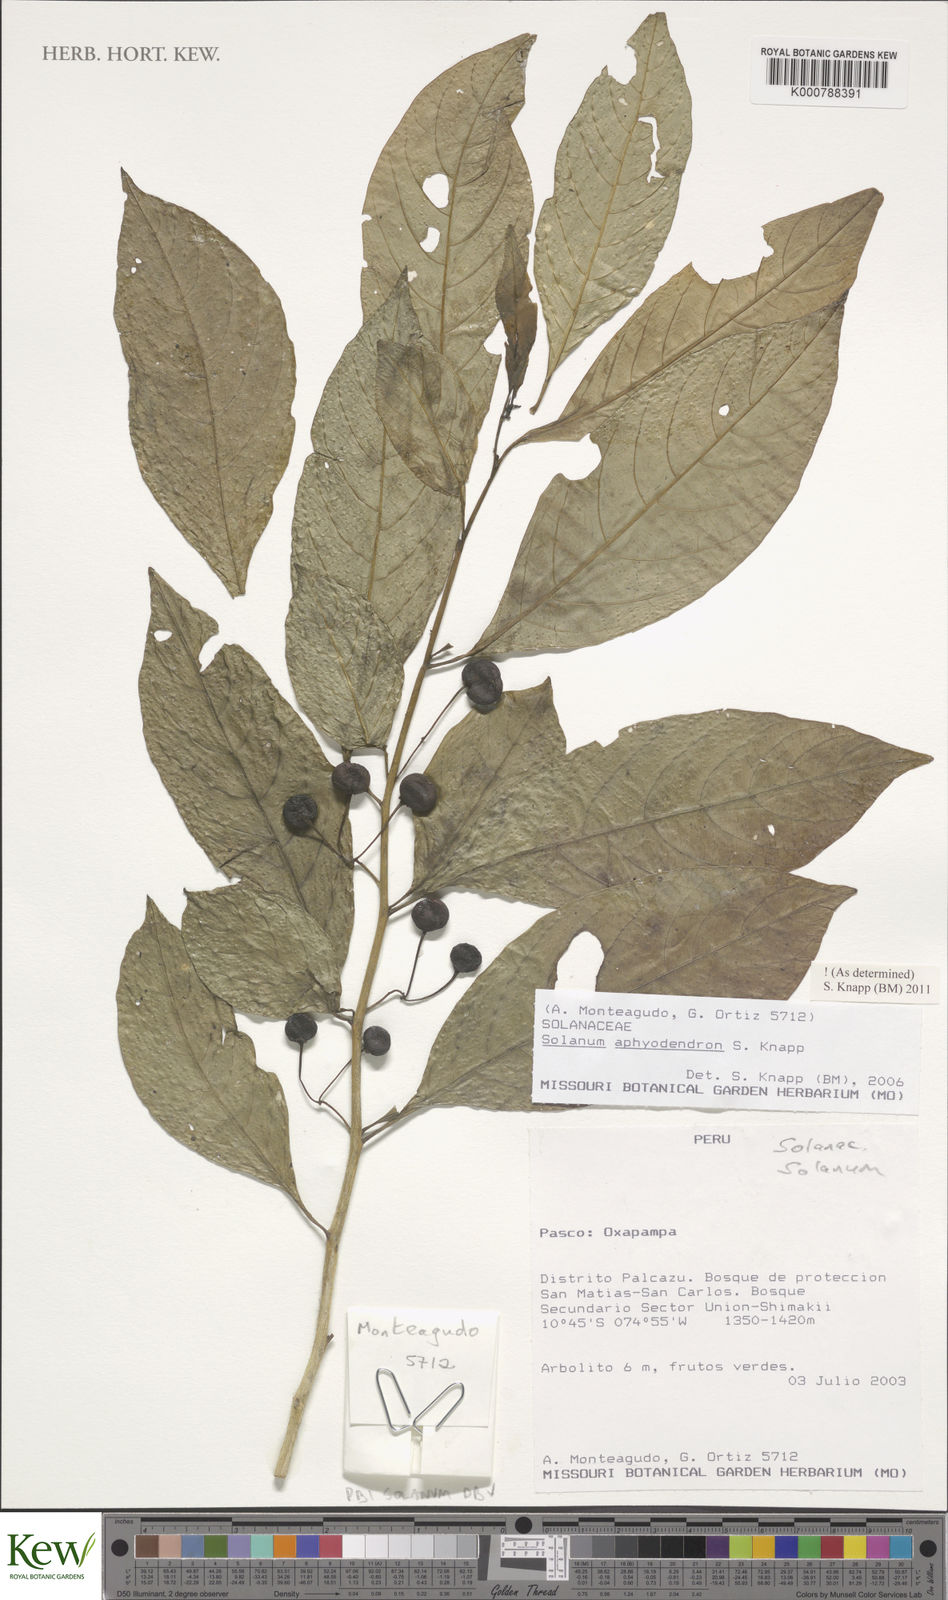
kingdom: Plantae
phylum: Tracheophyta
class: Magnoliopsida
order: Solanales
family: Solanaceae
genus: Solanum
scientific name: Solanum aphyodendron
